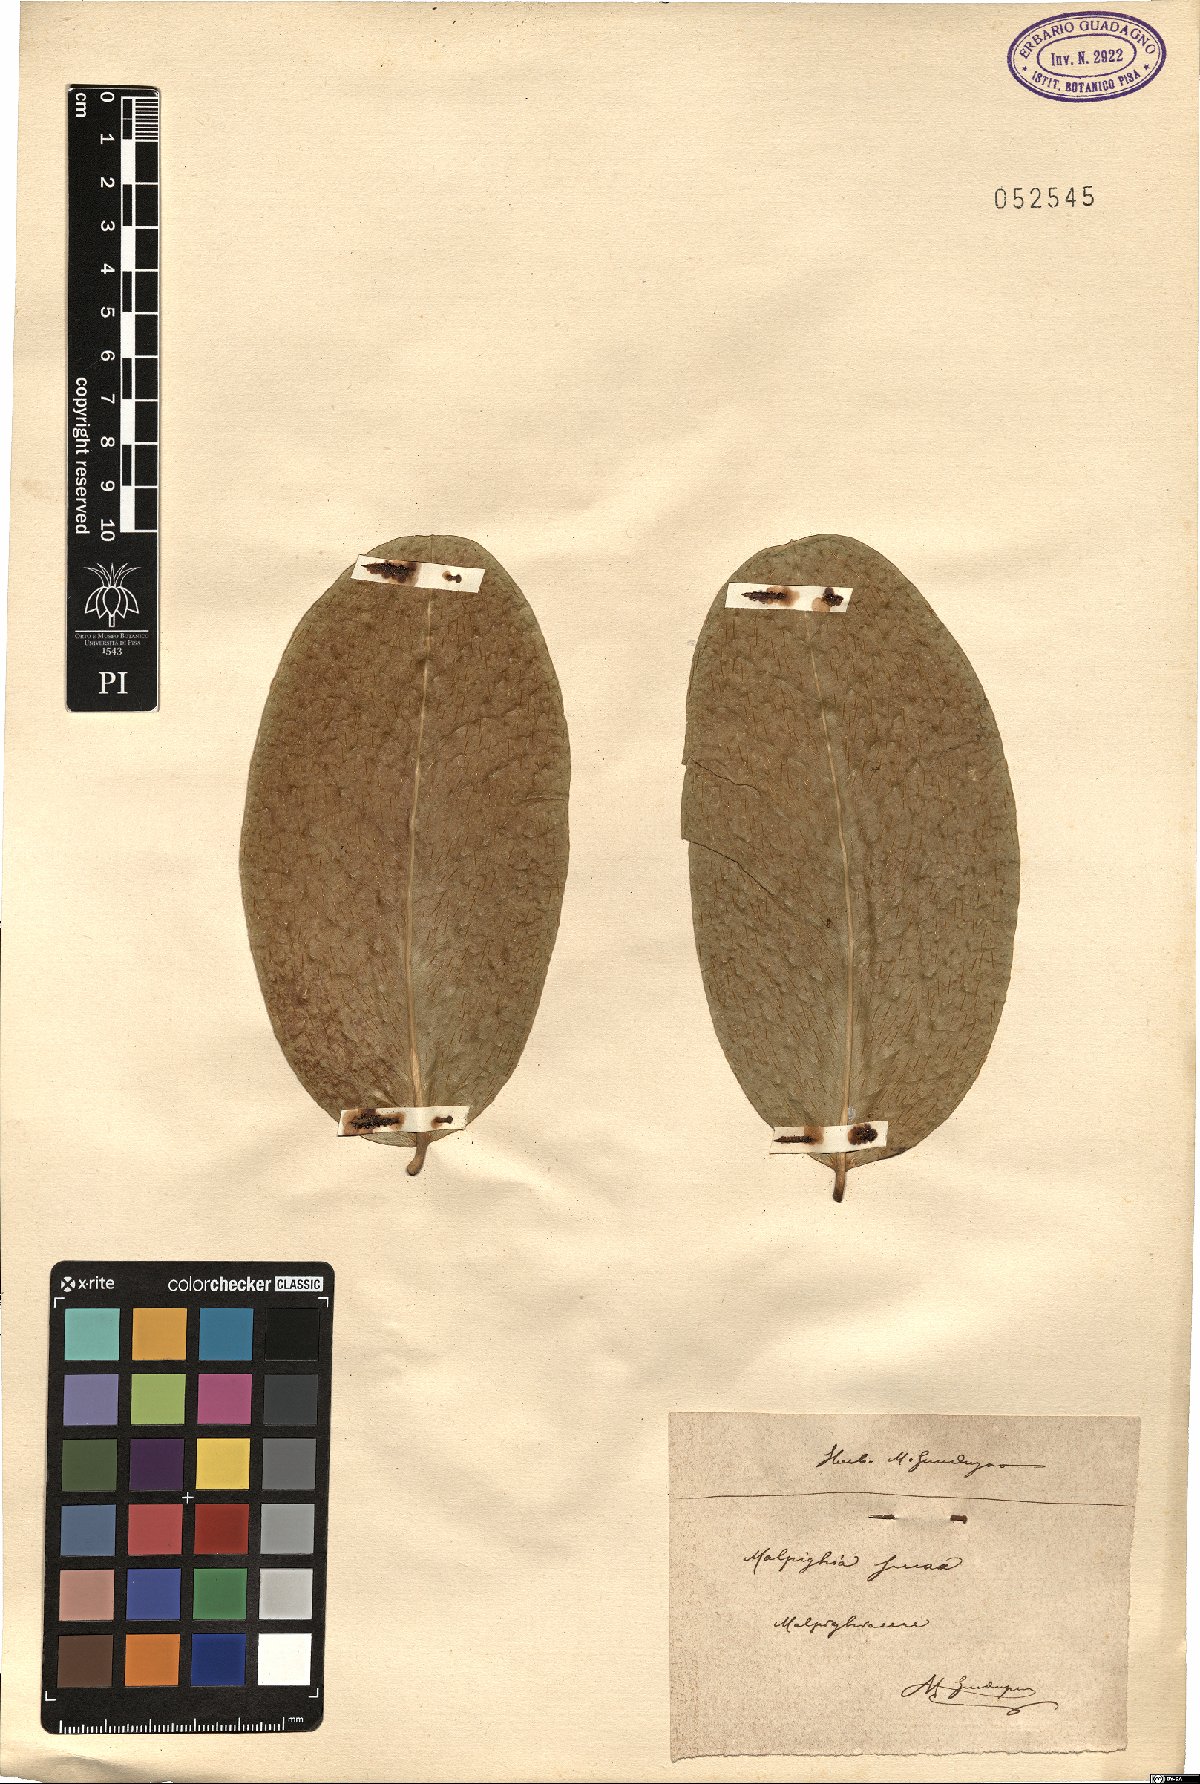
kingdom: Plantae
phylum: Tracheophyta
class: Magnoliopsida
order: Malpighiales
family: Malpighiaceae
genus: Malpighia
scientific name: Malpighia glabra
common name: Barbados cherry
